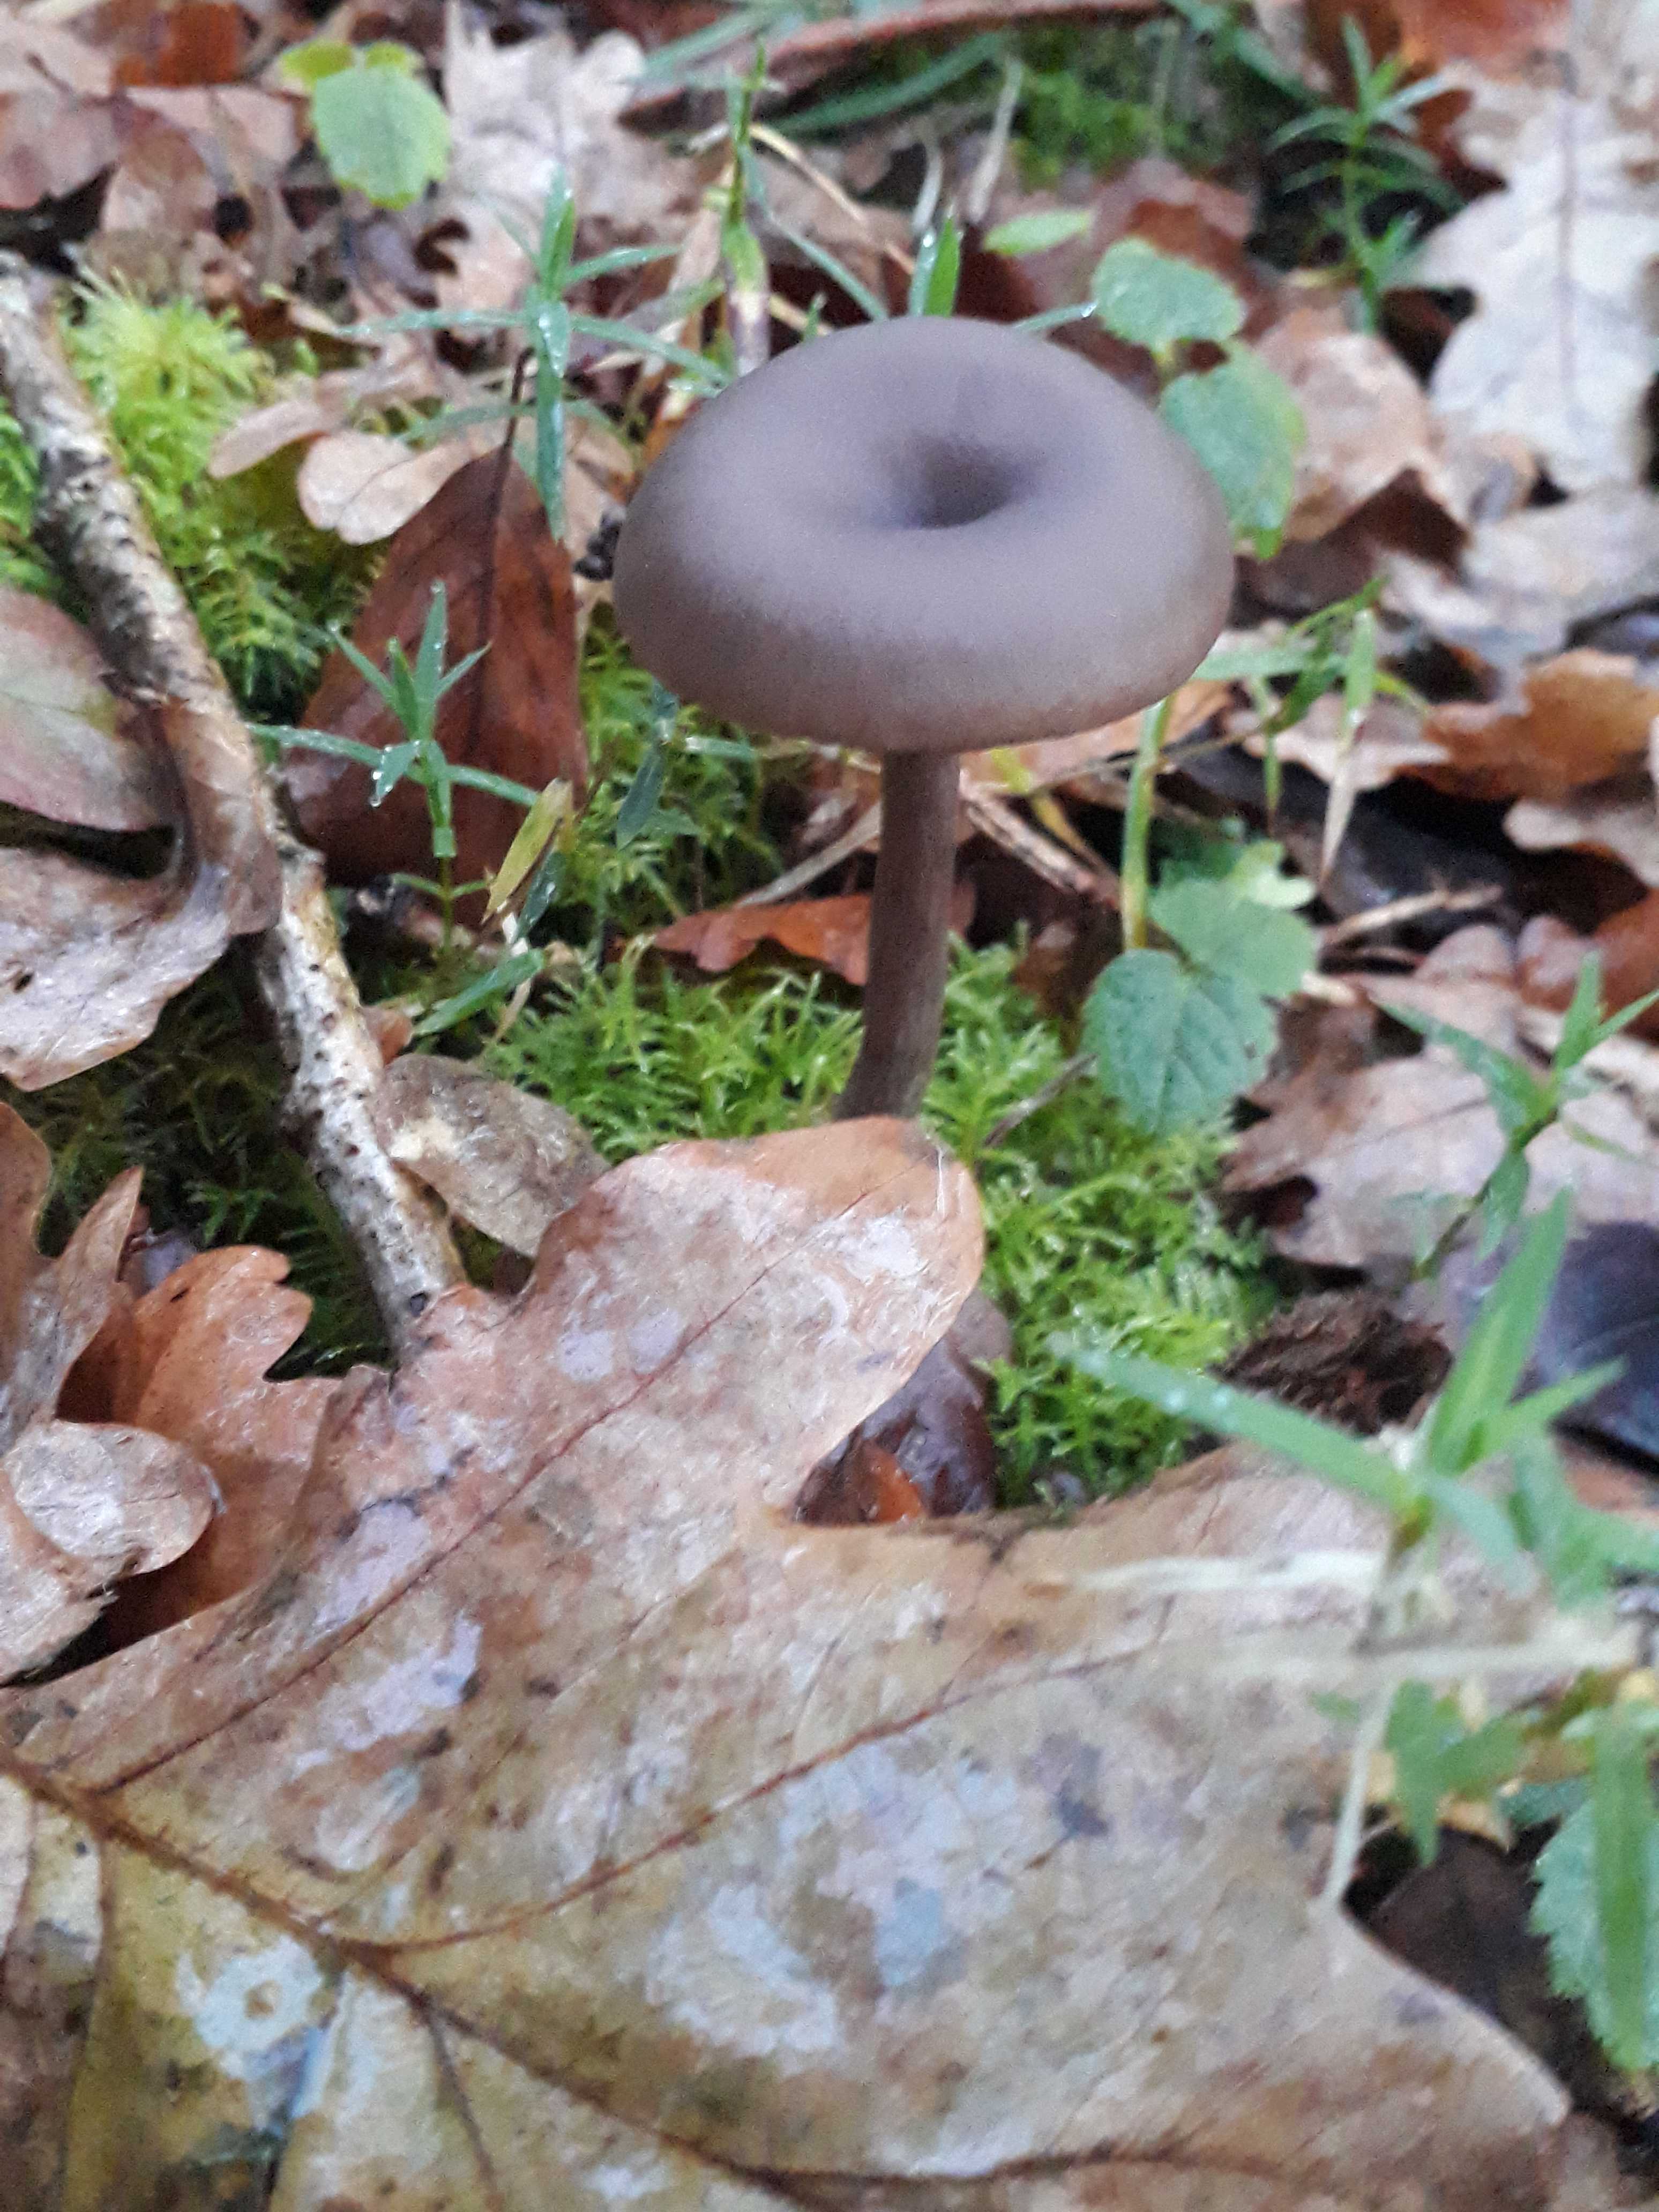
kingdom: Fungi
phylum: Basidiomycota
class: Agaricomycetes
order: Agaricales
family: Pseudoclitocybaceae
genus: Pseudoclitocybe
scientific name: Pseudoclitocybe cyathiformis
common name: almindelig bægertragthat
